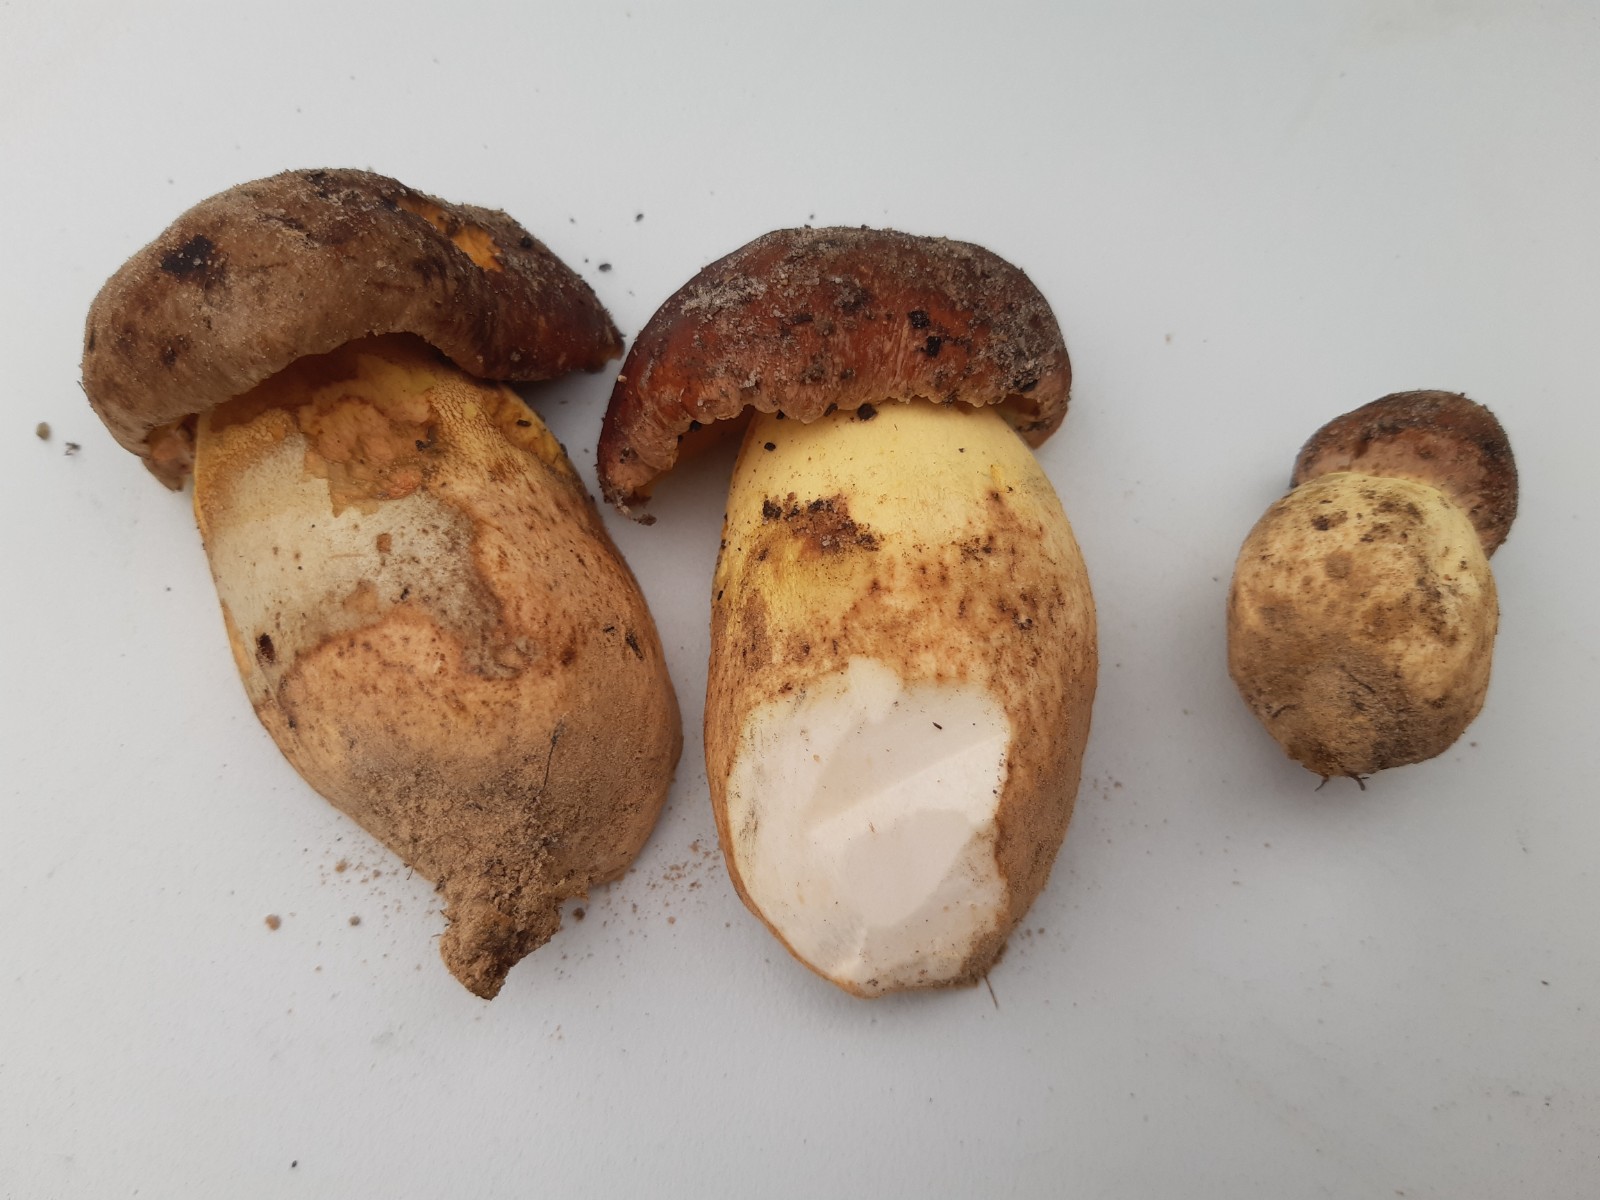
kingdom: Fungi
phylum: Basidiomycota
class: Agaricomycetes
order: Boletales
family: Boletaceae
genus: Butyriboletus
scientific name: Butyriboletus appendiculatus
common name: tenstokket rørhat
